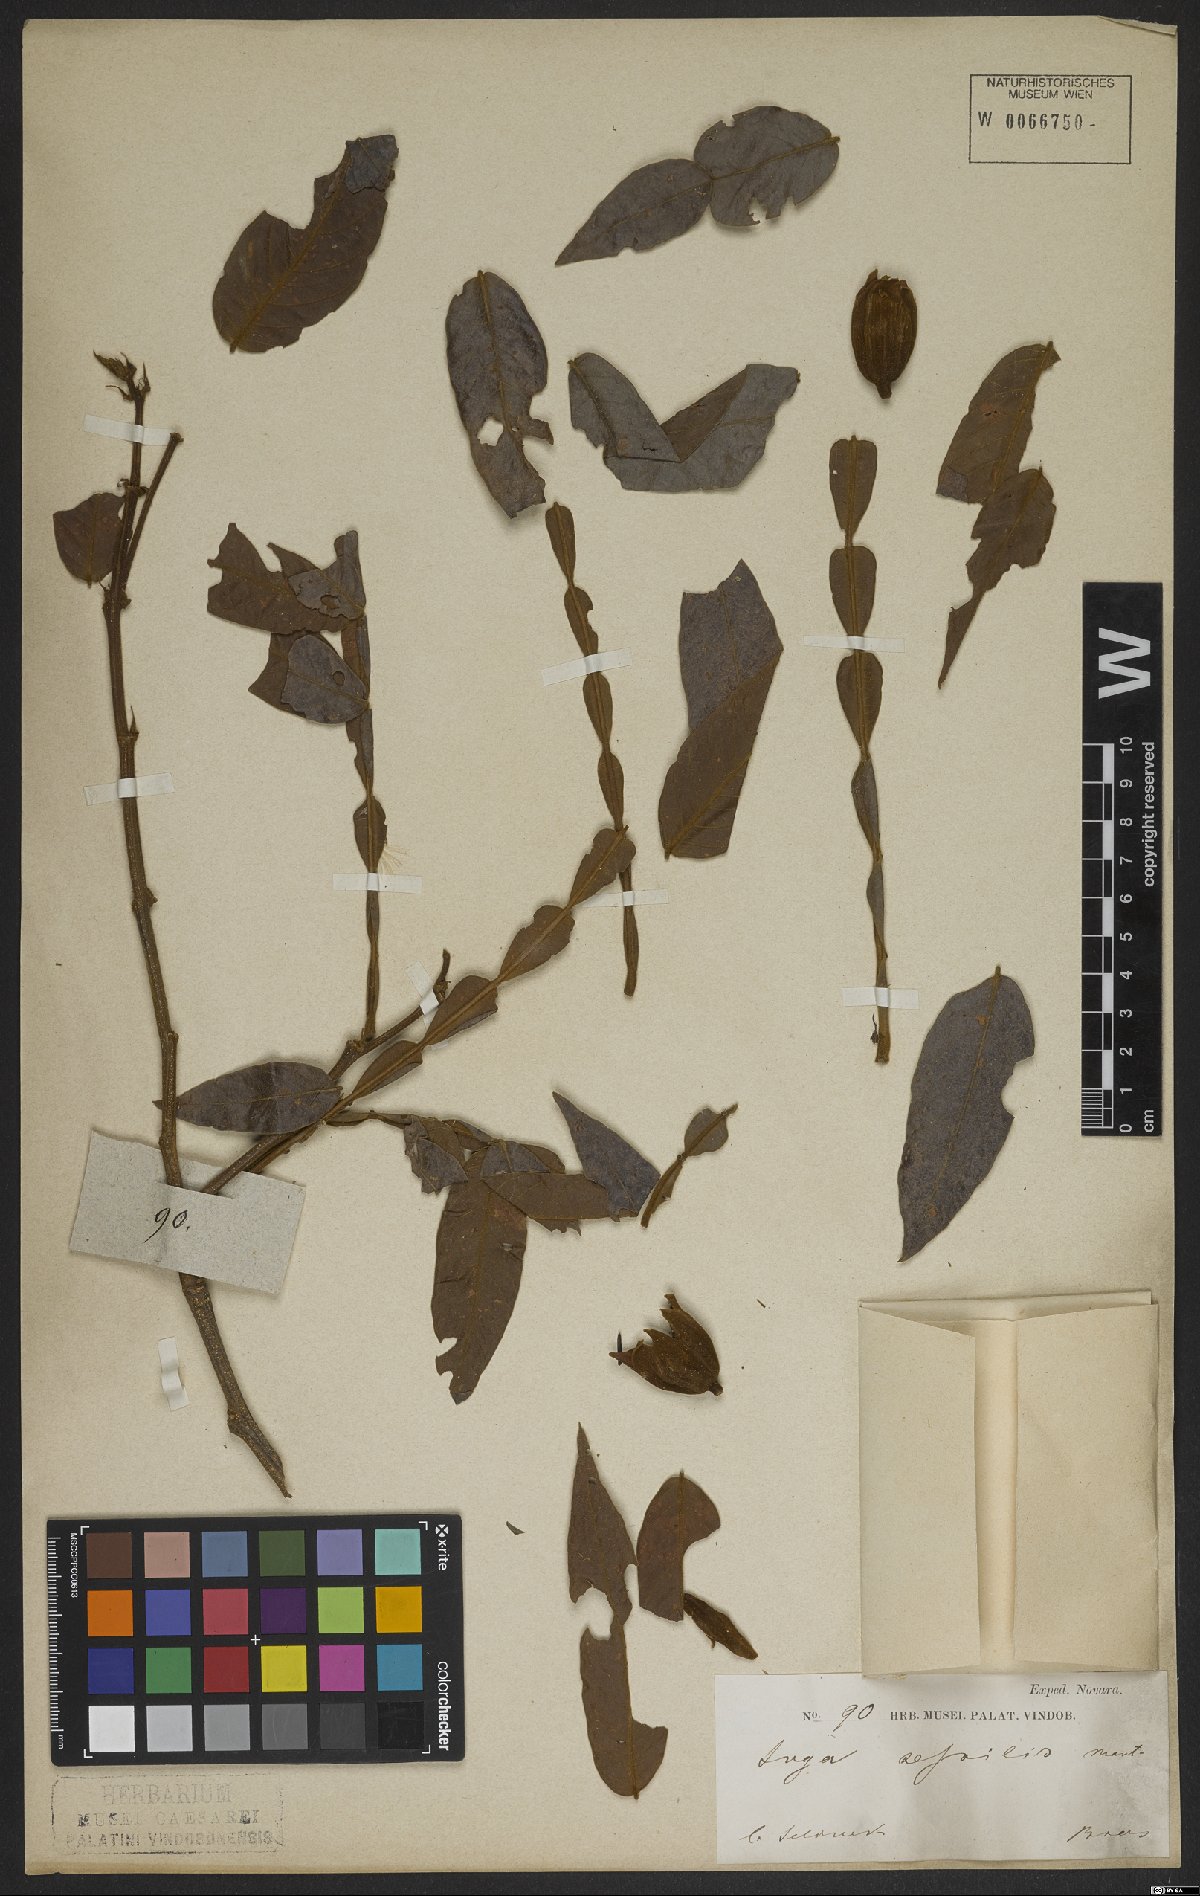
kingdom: Plantae
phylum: Tracheophyta
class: Magnoliopsida
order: Fabales
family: Fabaceae
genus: Inga
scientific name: Inga sessilis
